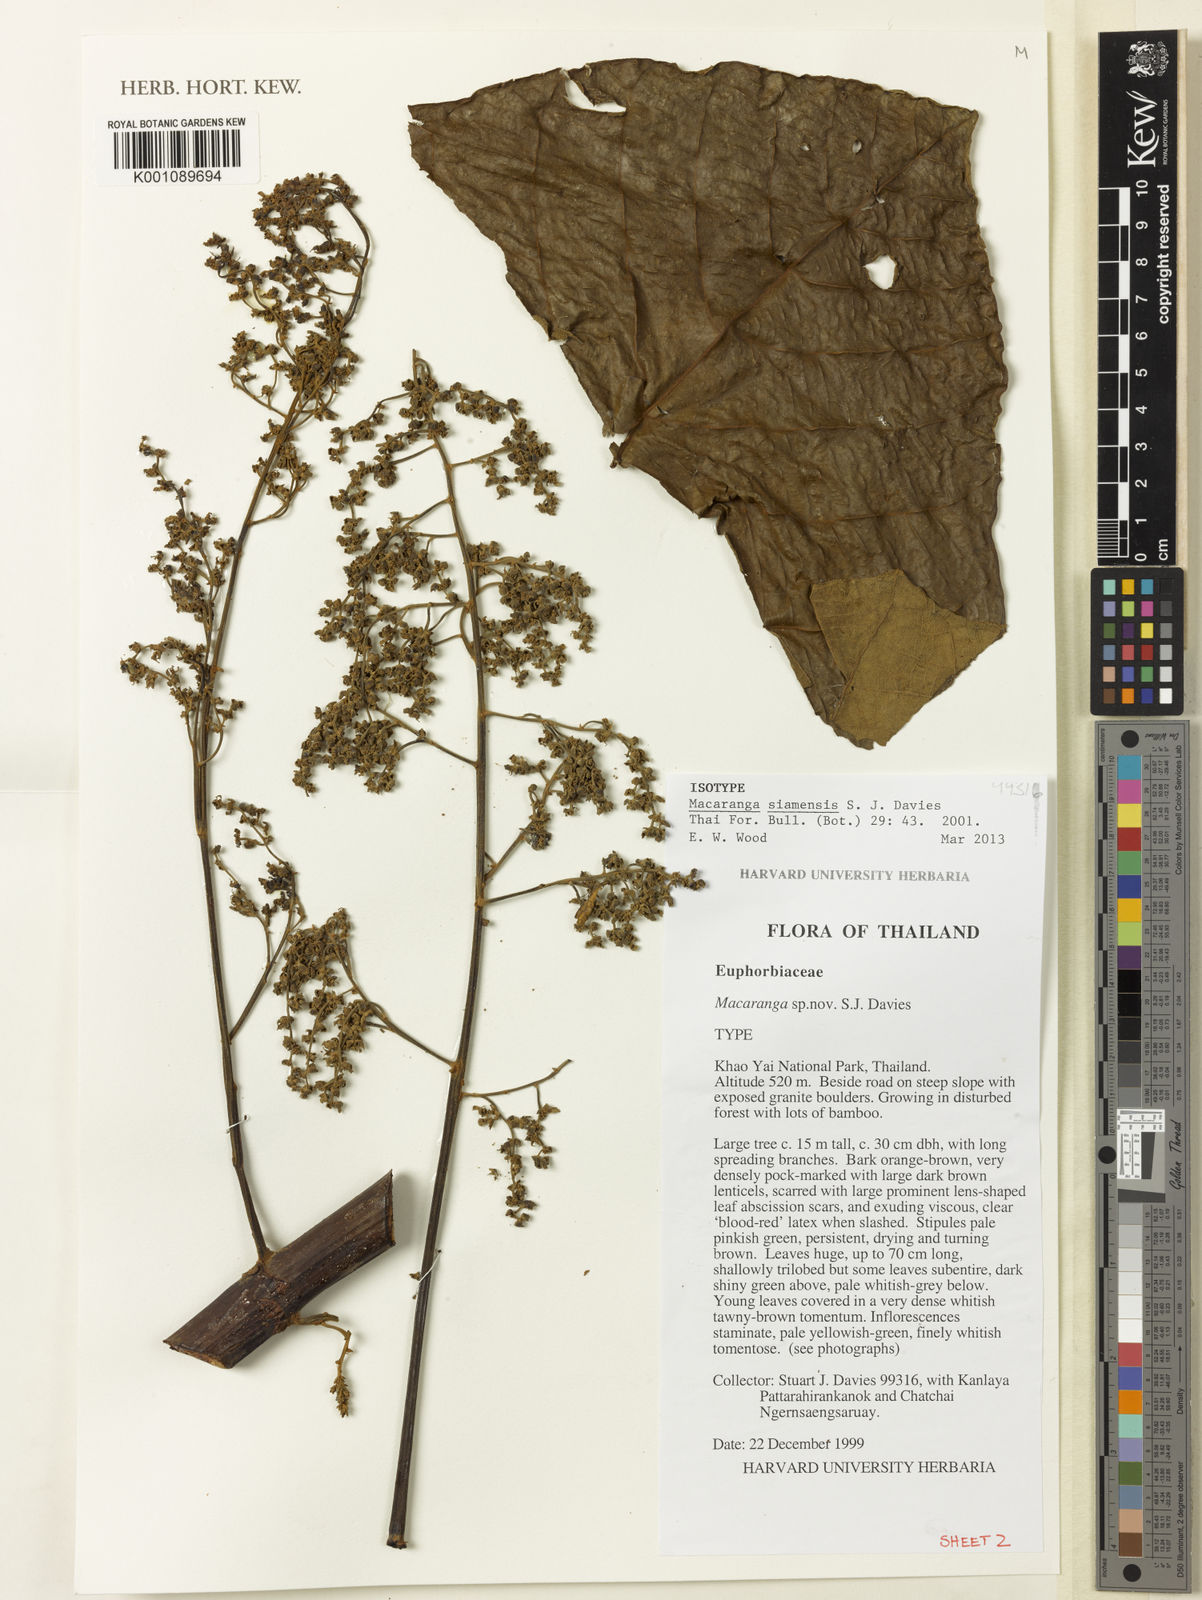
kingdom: Plantae
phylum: Tracheophyta
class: Magnoliopsida
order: Malpighiales
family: Euphorbiaceae
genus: Macaranga
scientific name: Macaranga siamensis
